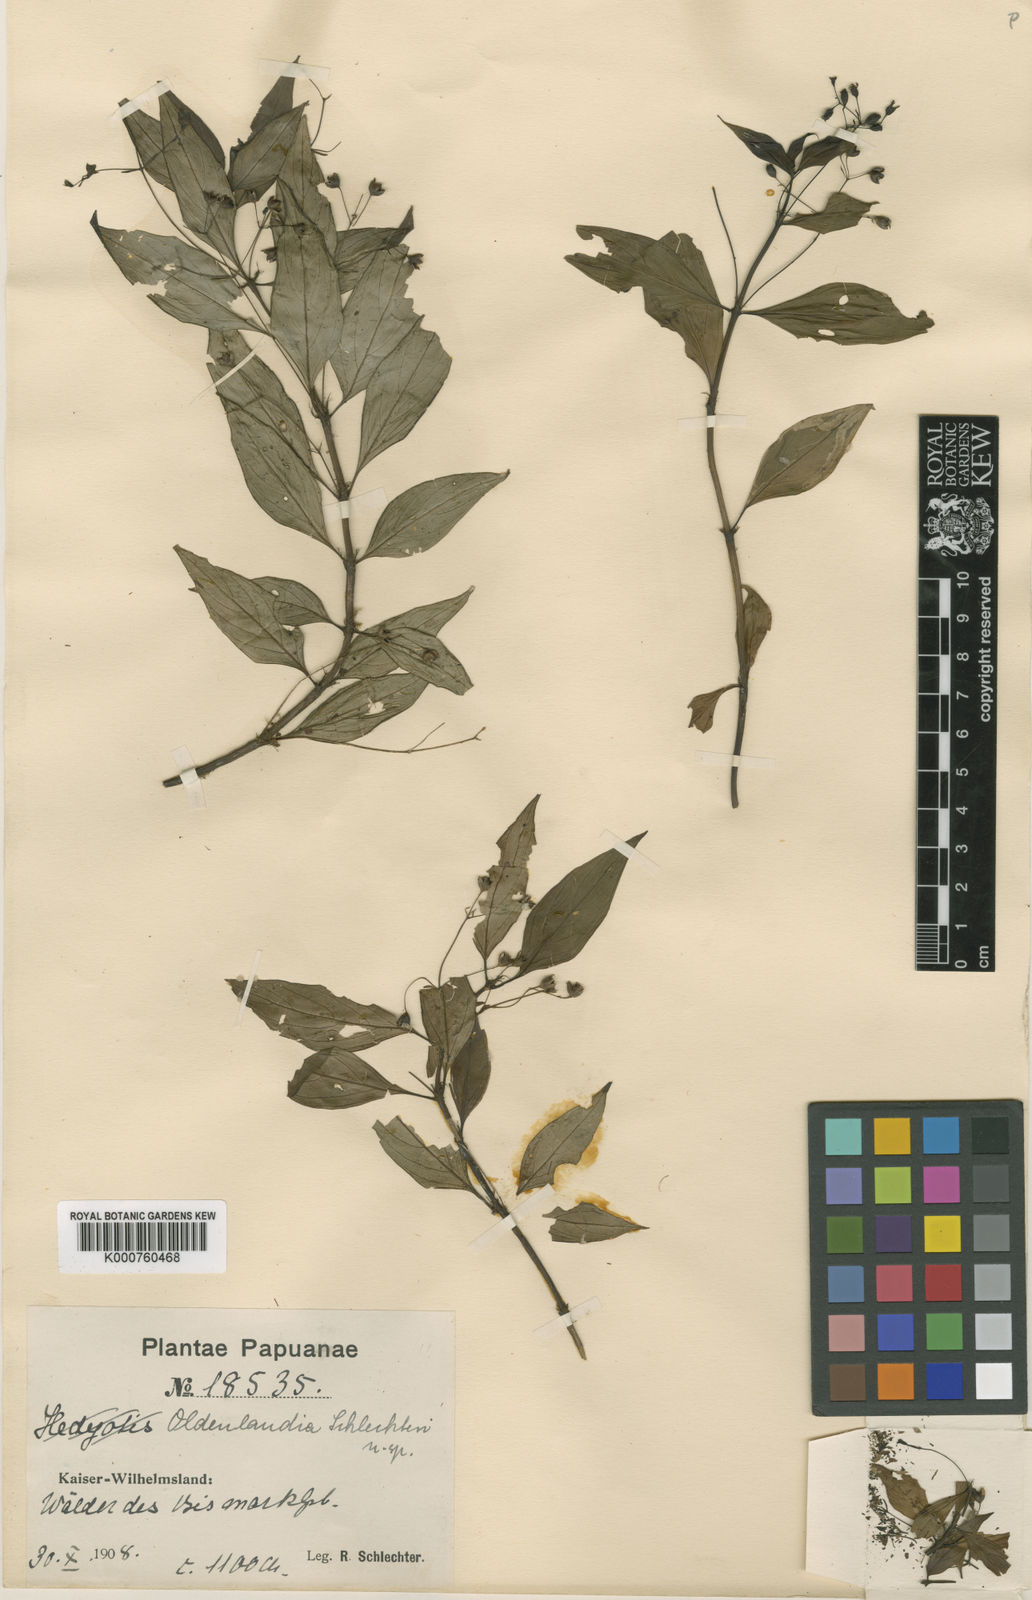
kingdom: Plantae
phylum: Tracheophyta
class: Magnoliopsida
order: Gentianales
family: Rubiaceae
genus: Hedyotis
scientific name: Hedyotis schlechteri
